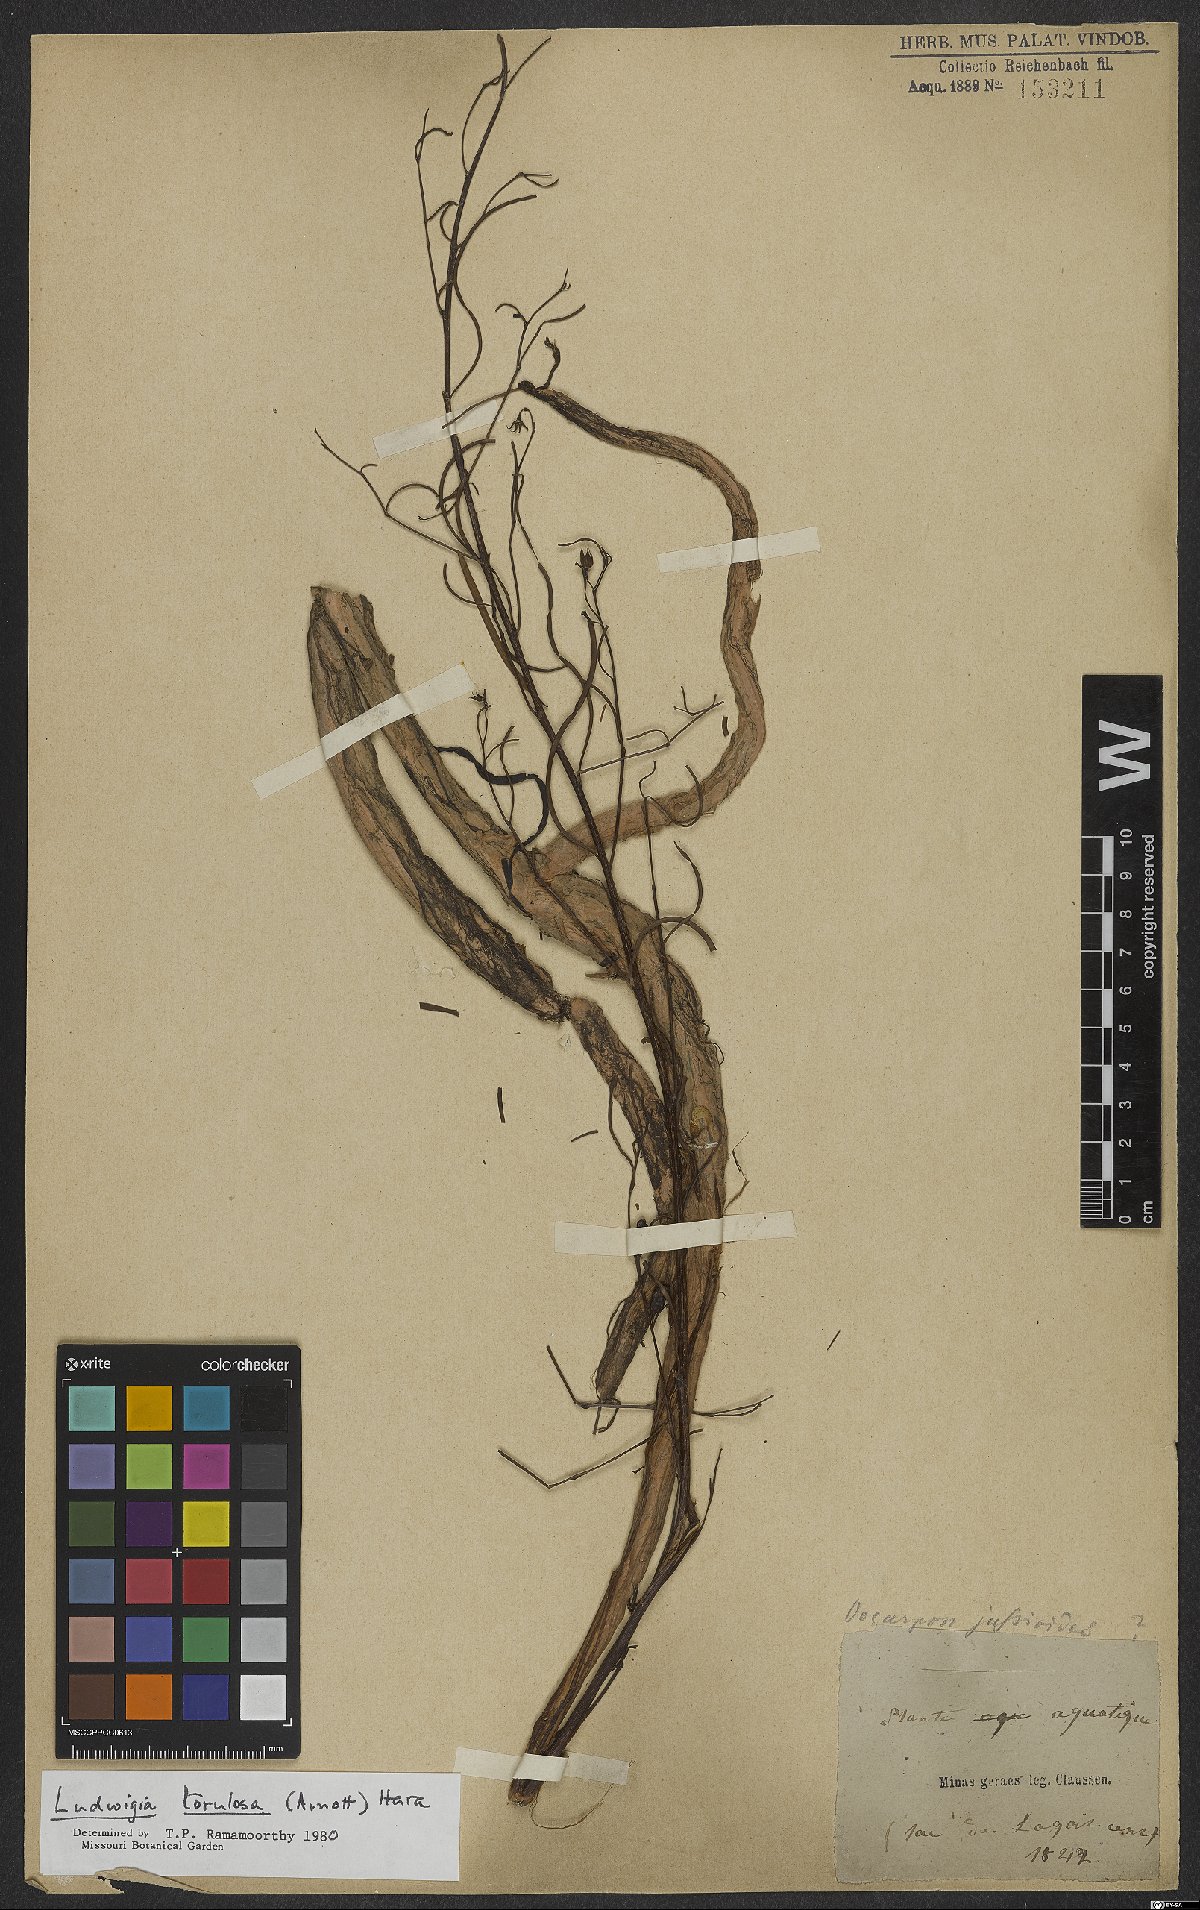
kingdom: Plantae
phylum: Tracheophyta
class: Magnoliopsida
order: Myrtales
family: Onagraceae
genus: Ludwigia
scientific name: Ludwigia torulosa
